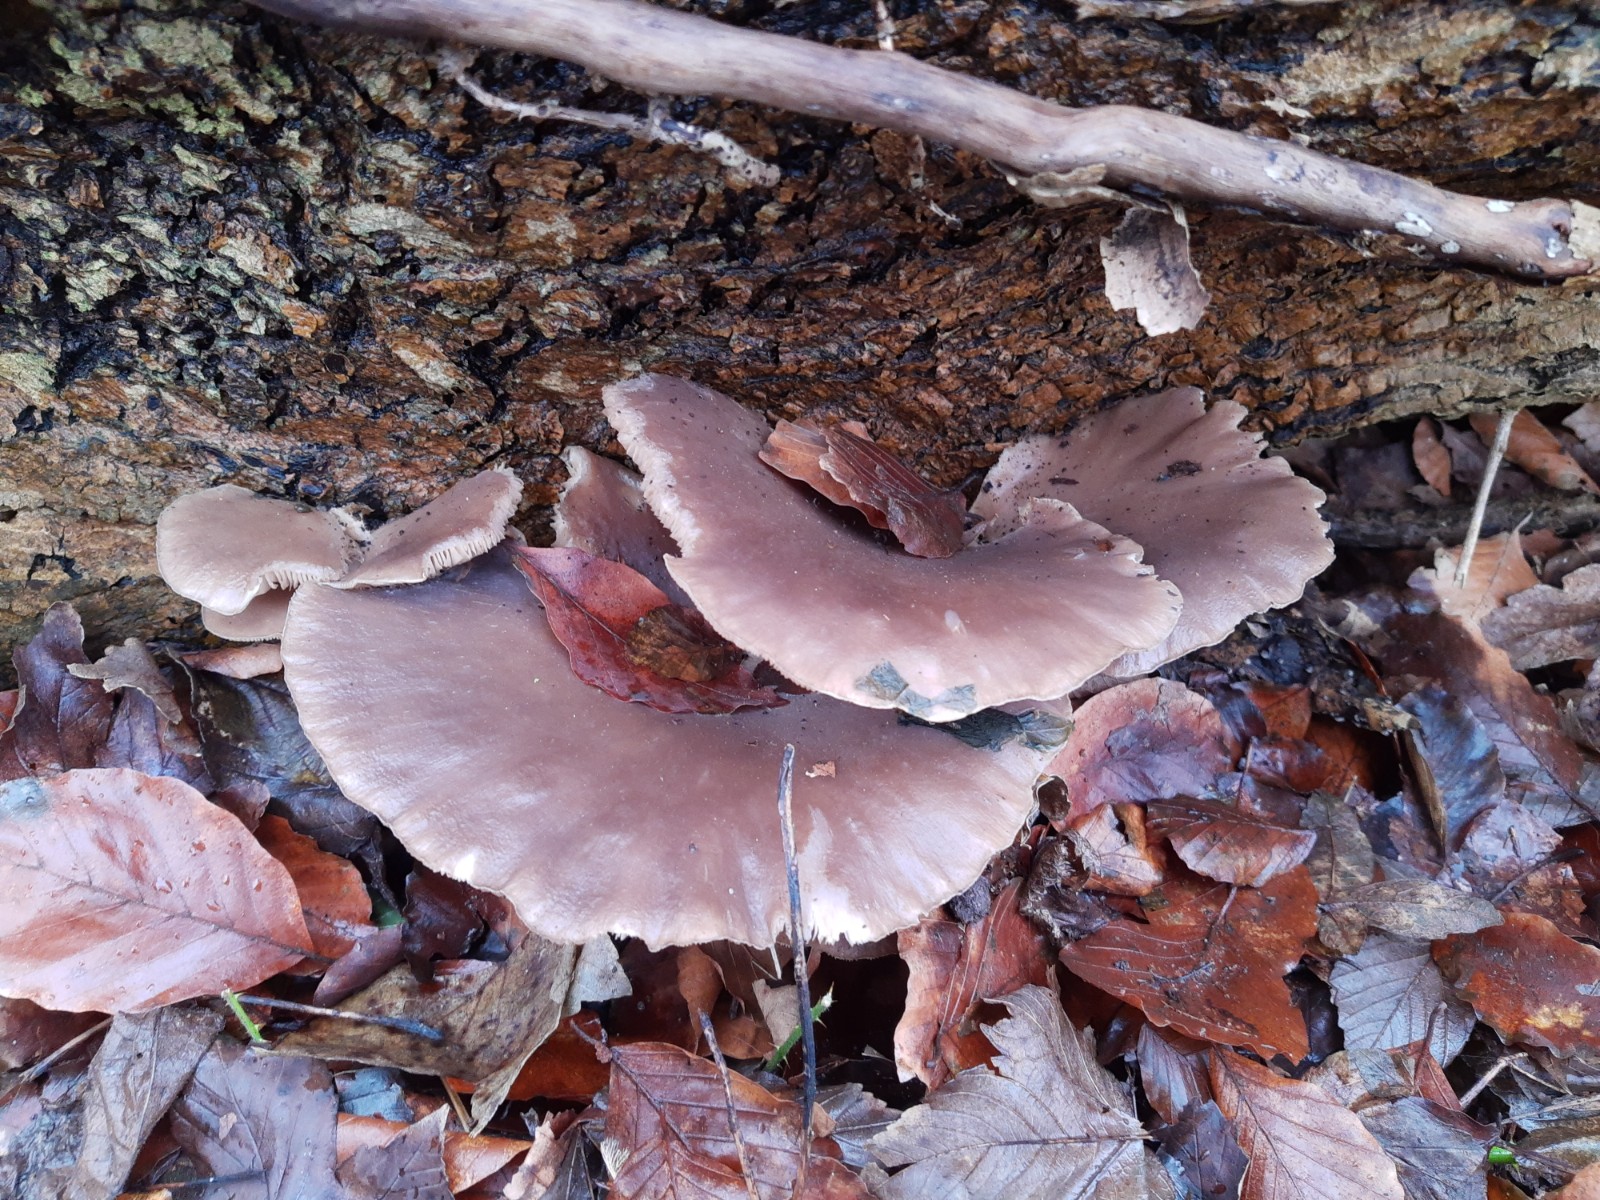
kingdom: Fungi
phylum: Basidiomycota
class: Agaricomycetes
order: Agaricales
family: Pleurotaceae
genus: Pleurotus
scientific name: Pleurotus ostreatus
